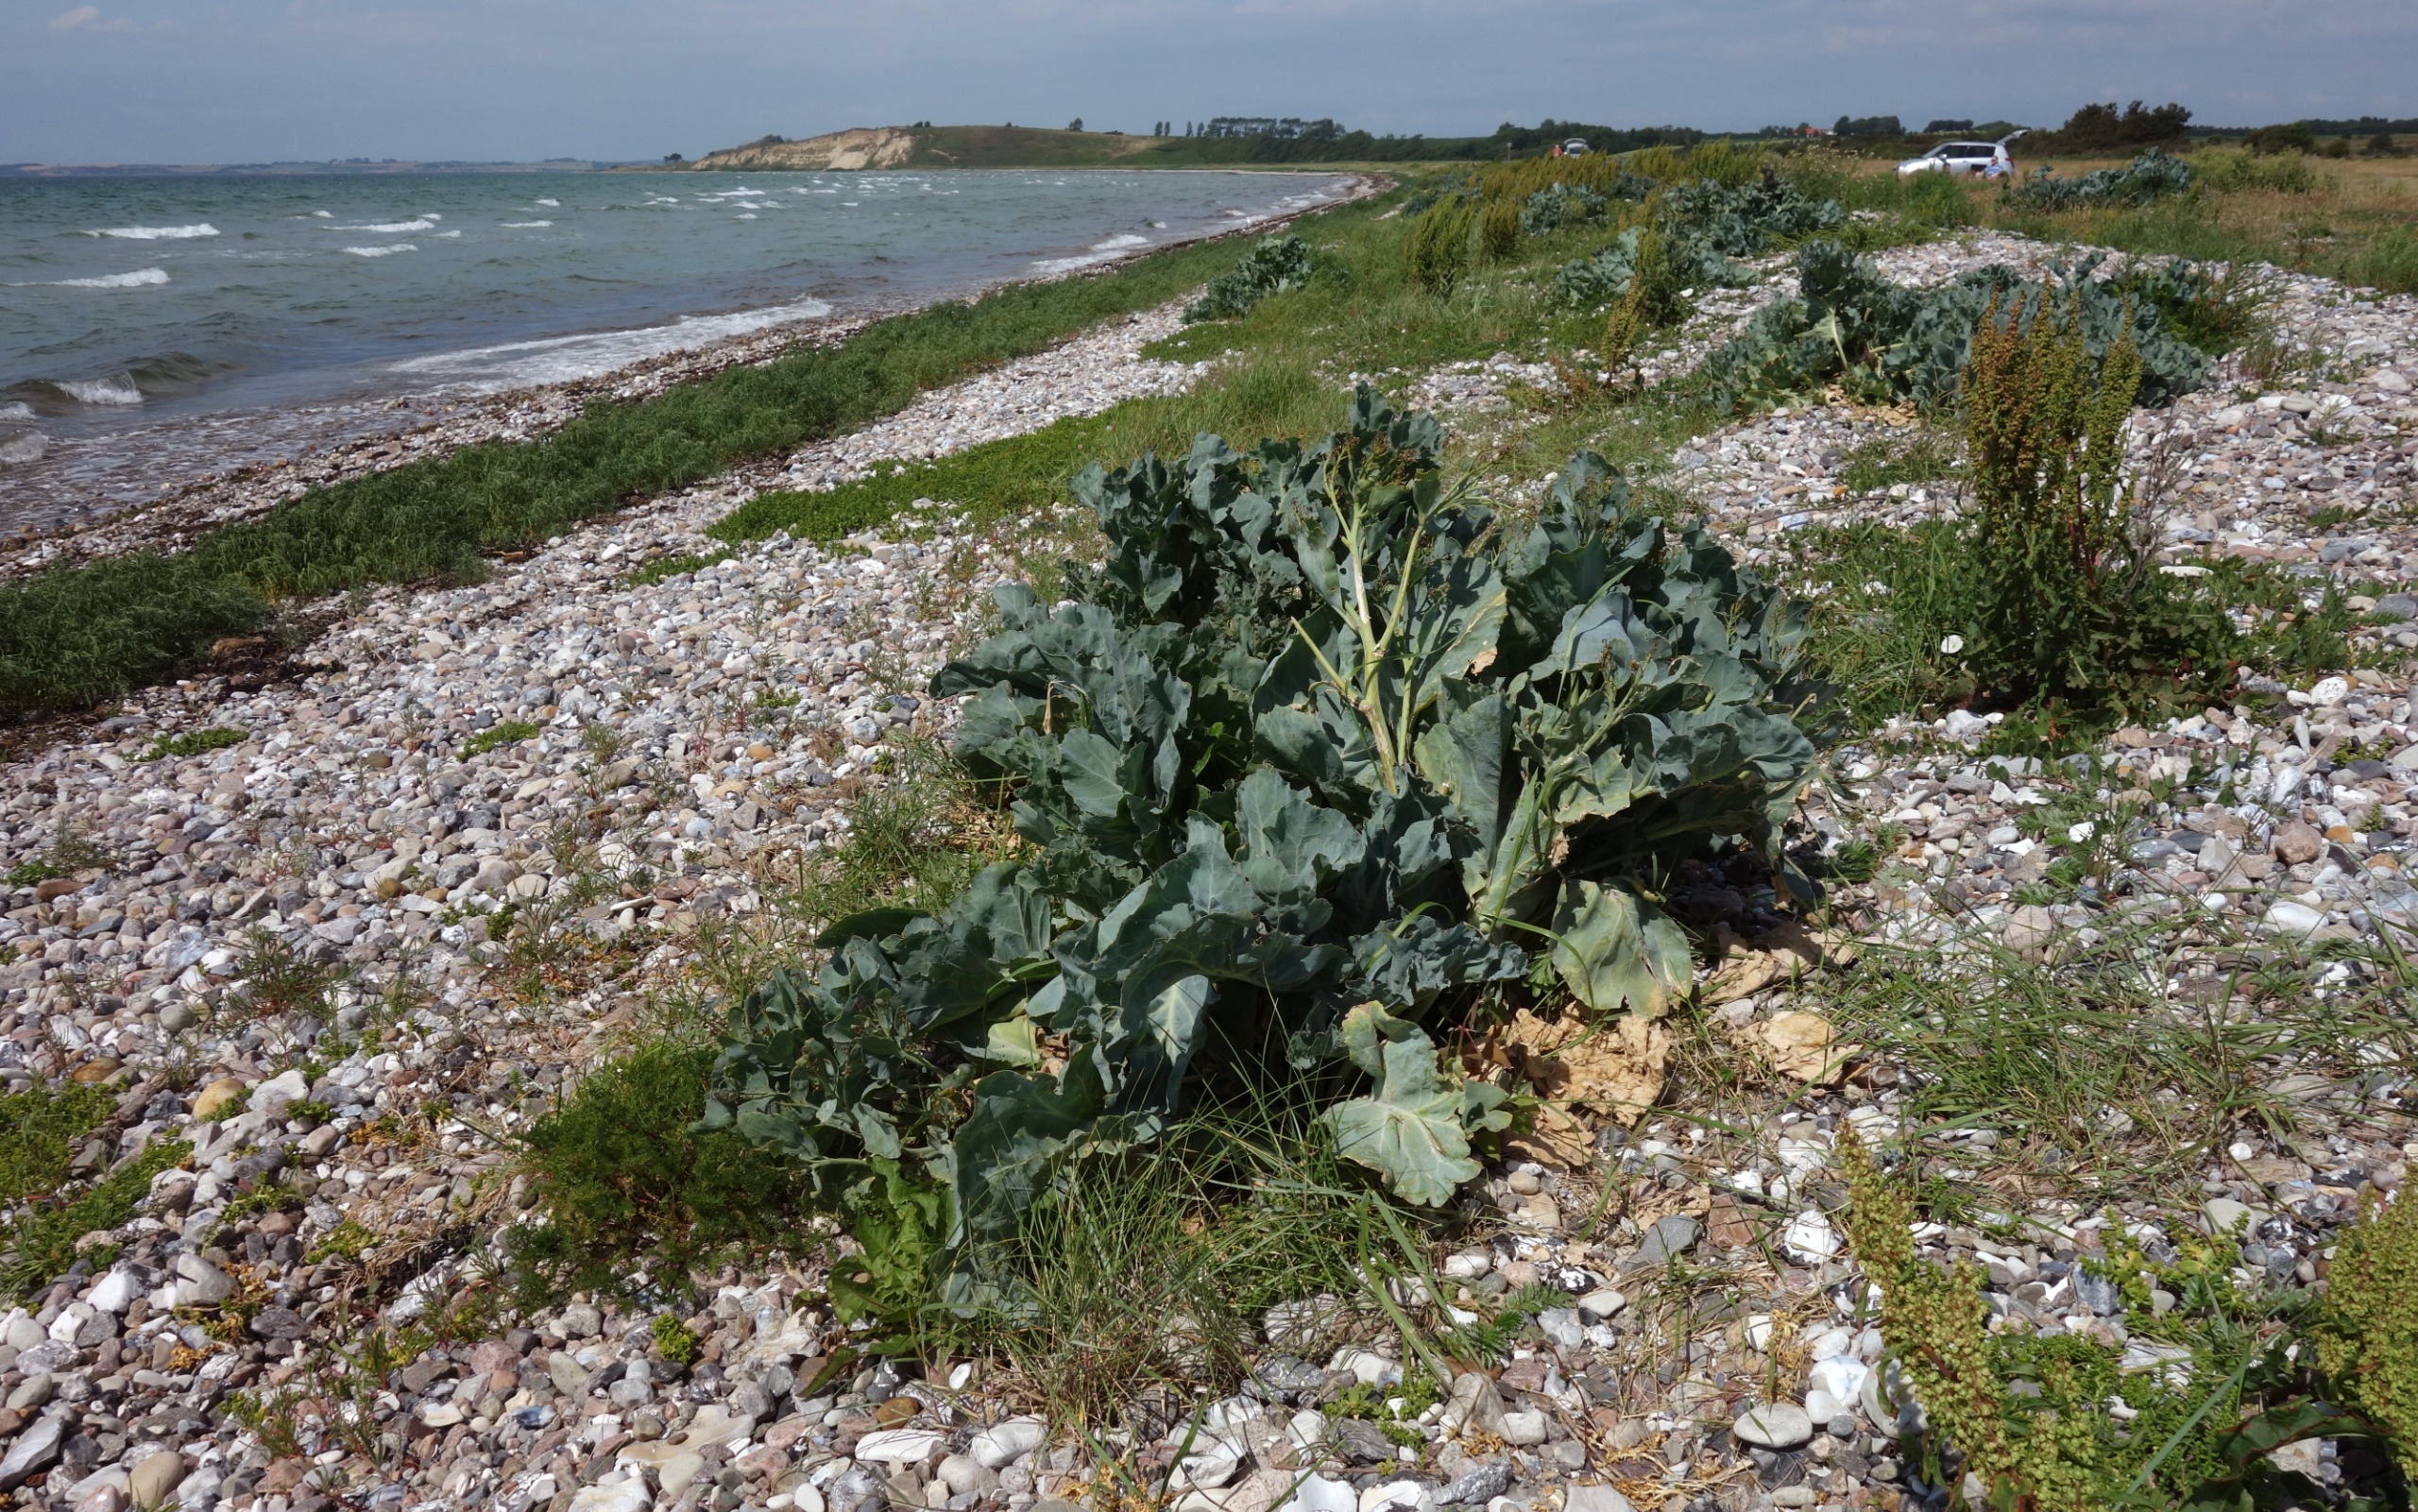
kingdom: Plantae
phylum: Tracheophyta
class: Magnoliopsida
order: Brassicales
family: Brassicaceae
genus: Crambe
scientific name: Crambe maritima
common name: Strandkål
